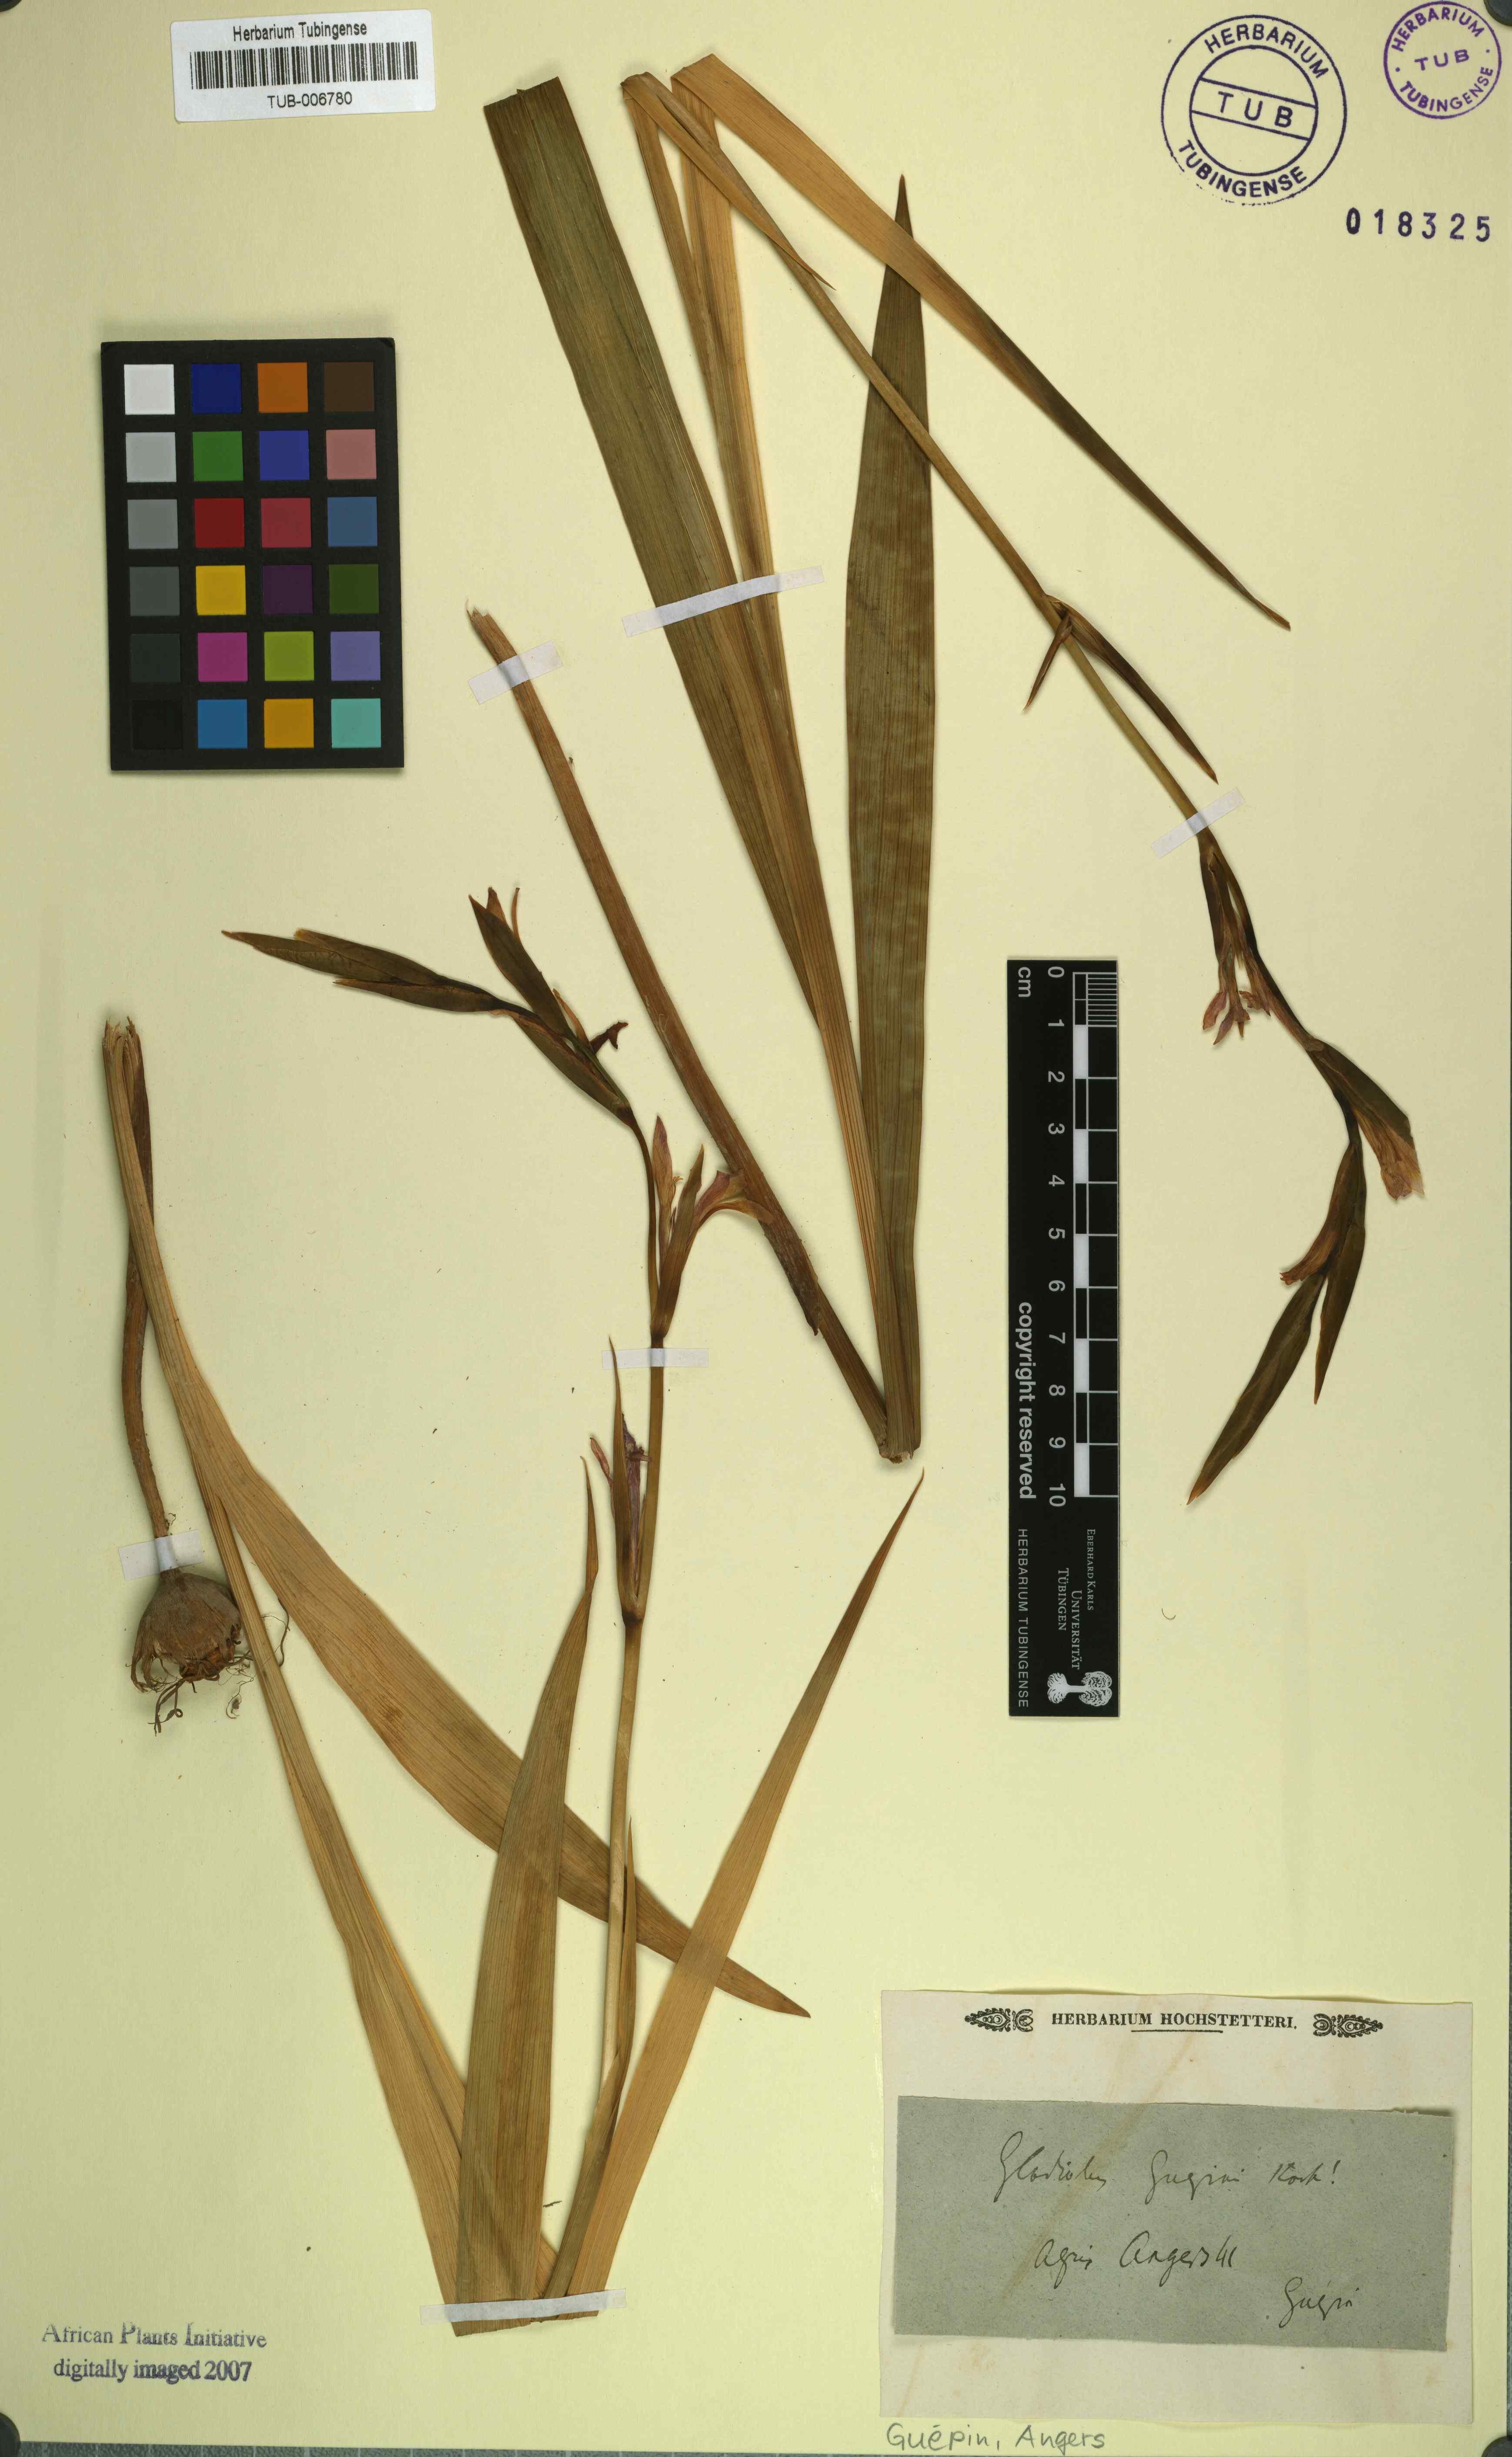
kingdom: Plantae
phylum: Tracheophyta
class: Liliopsida
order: Asparagales
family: Iridaceae
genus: Gladiolus
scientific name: Gladiolus italicus
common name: Field gladiolus
